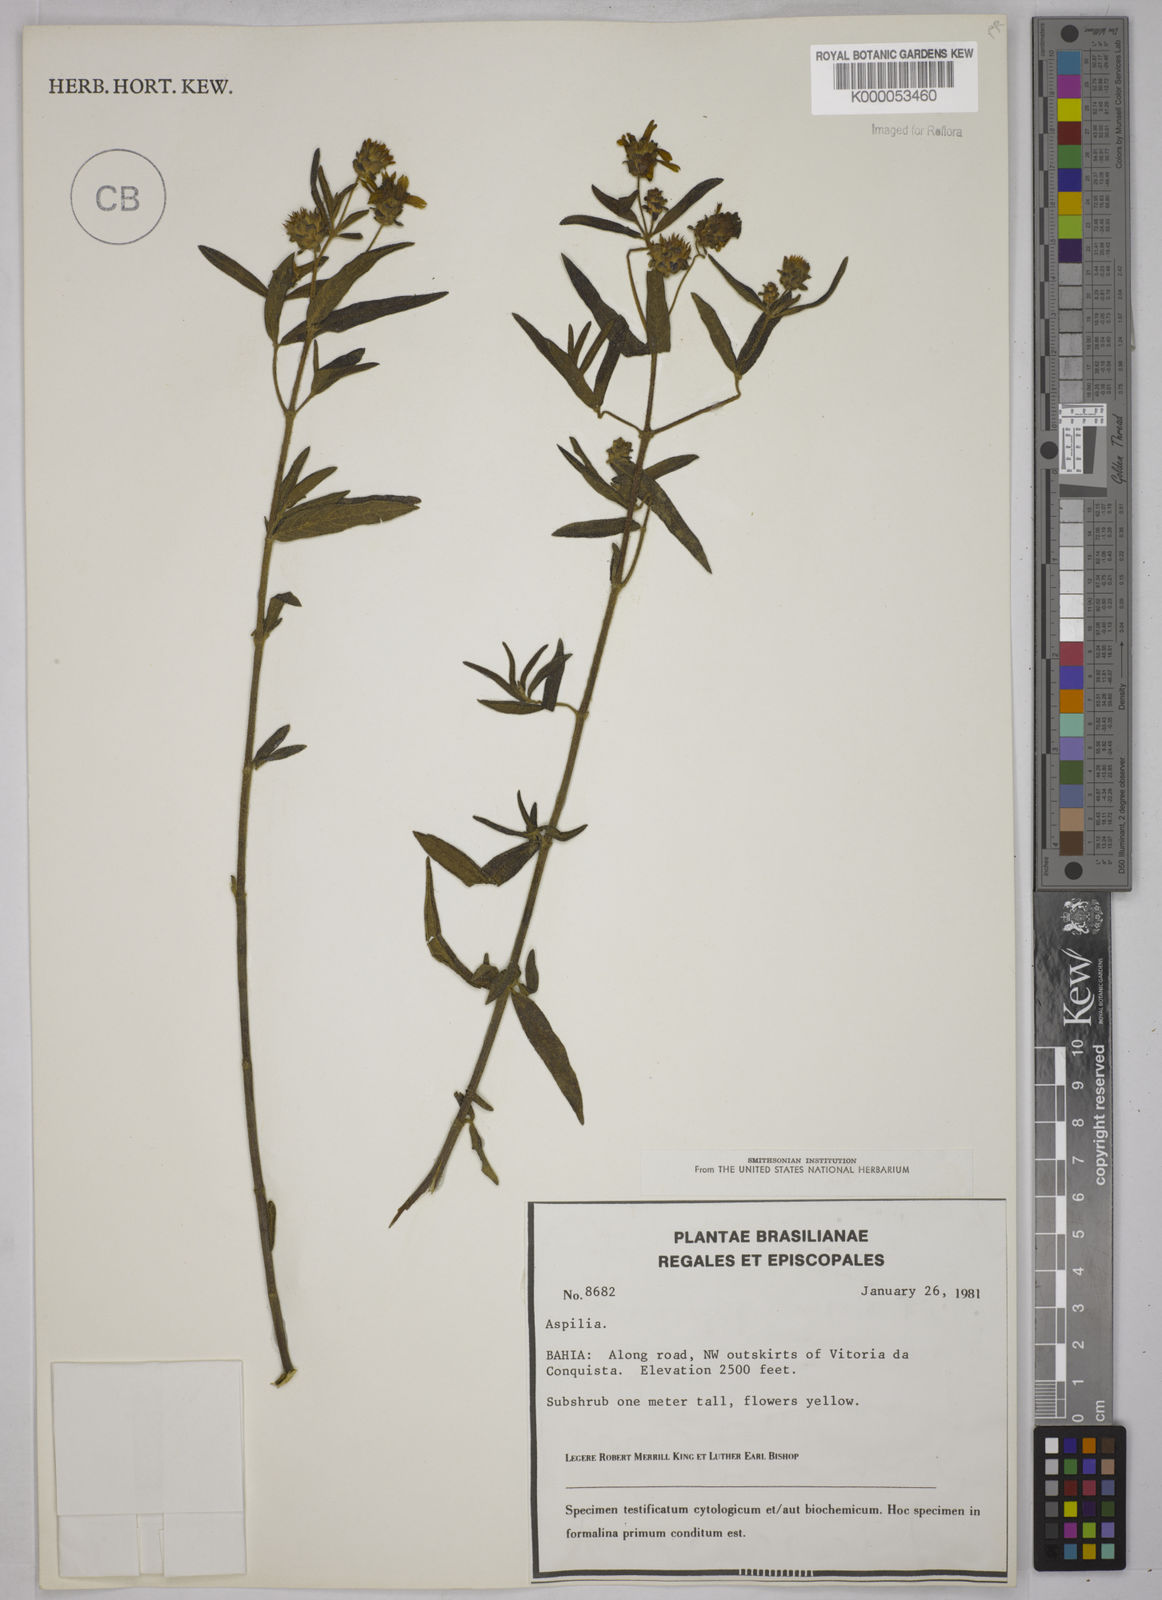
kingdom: Plantae
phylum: Tracheophyta
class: Magnoliopsida
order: Asterales
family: Asteraceae
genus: Aspilia
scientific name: Aspilia
